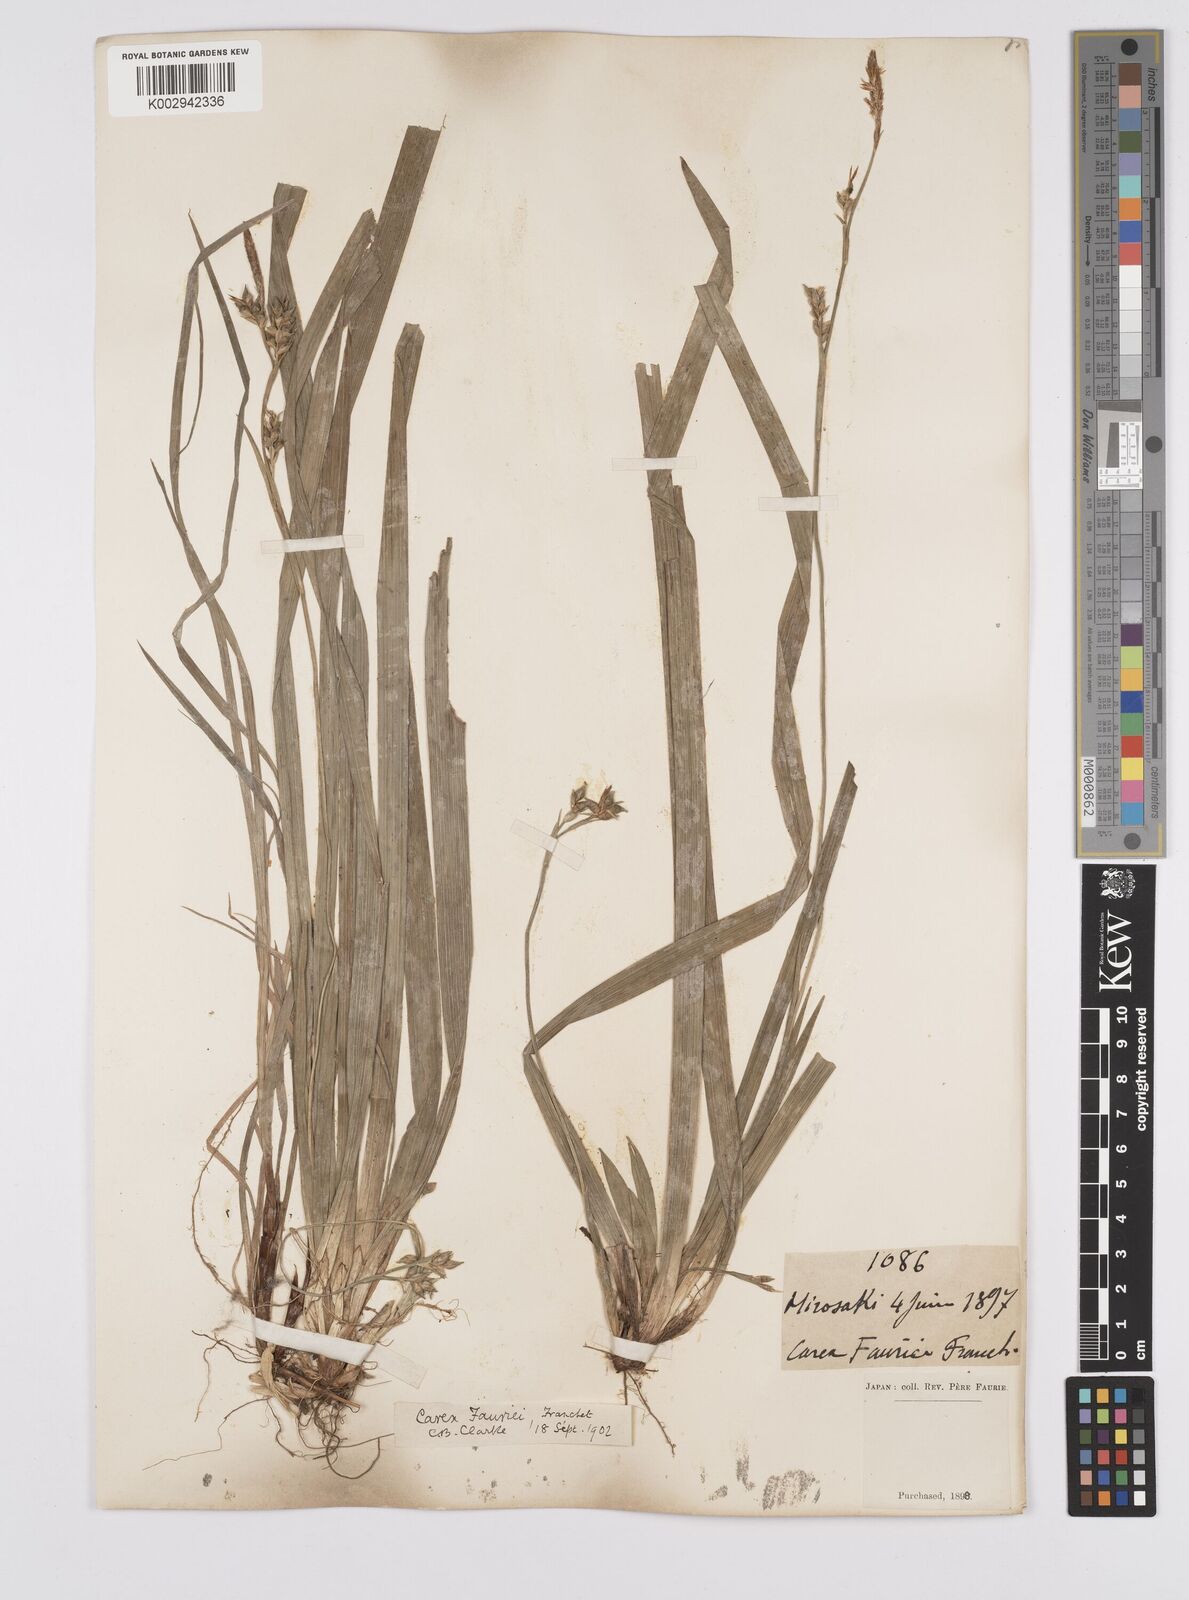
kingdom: Plantae
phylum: Tracheophyta
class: Liliopsida
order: Poales
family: Cyperaceae
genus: Carex
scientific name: Carex phacota
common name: Lakeshore sedge
